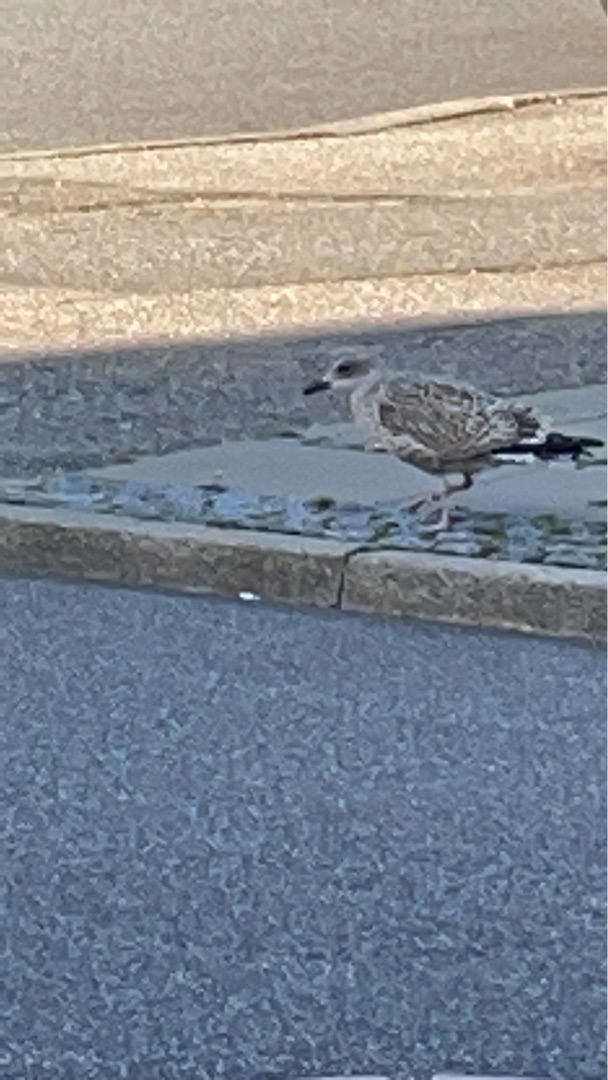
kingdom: Animalia
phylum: Chordata
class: Aves
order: Charadriiformes
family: Laridae
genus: Larus
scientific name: Larus argentatus
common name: Sølvmåge
